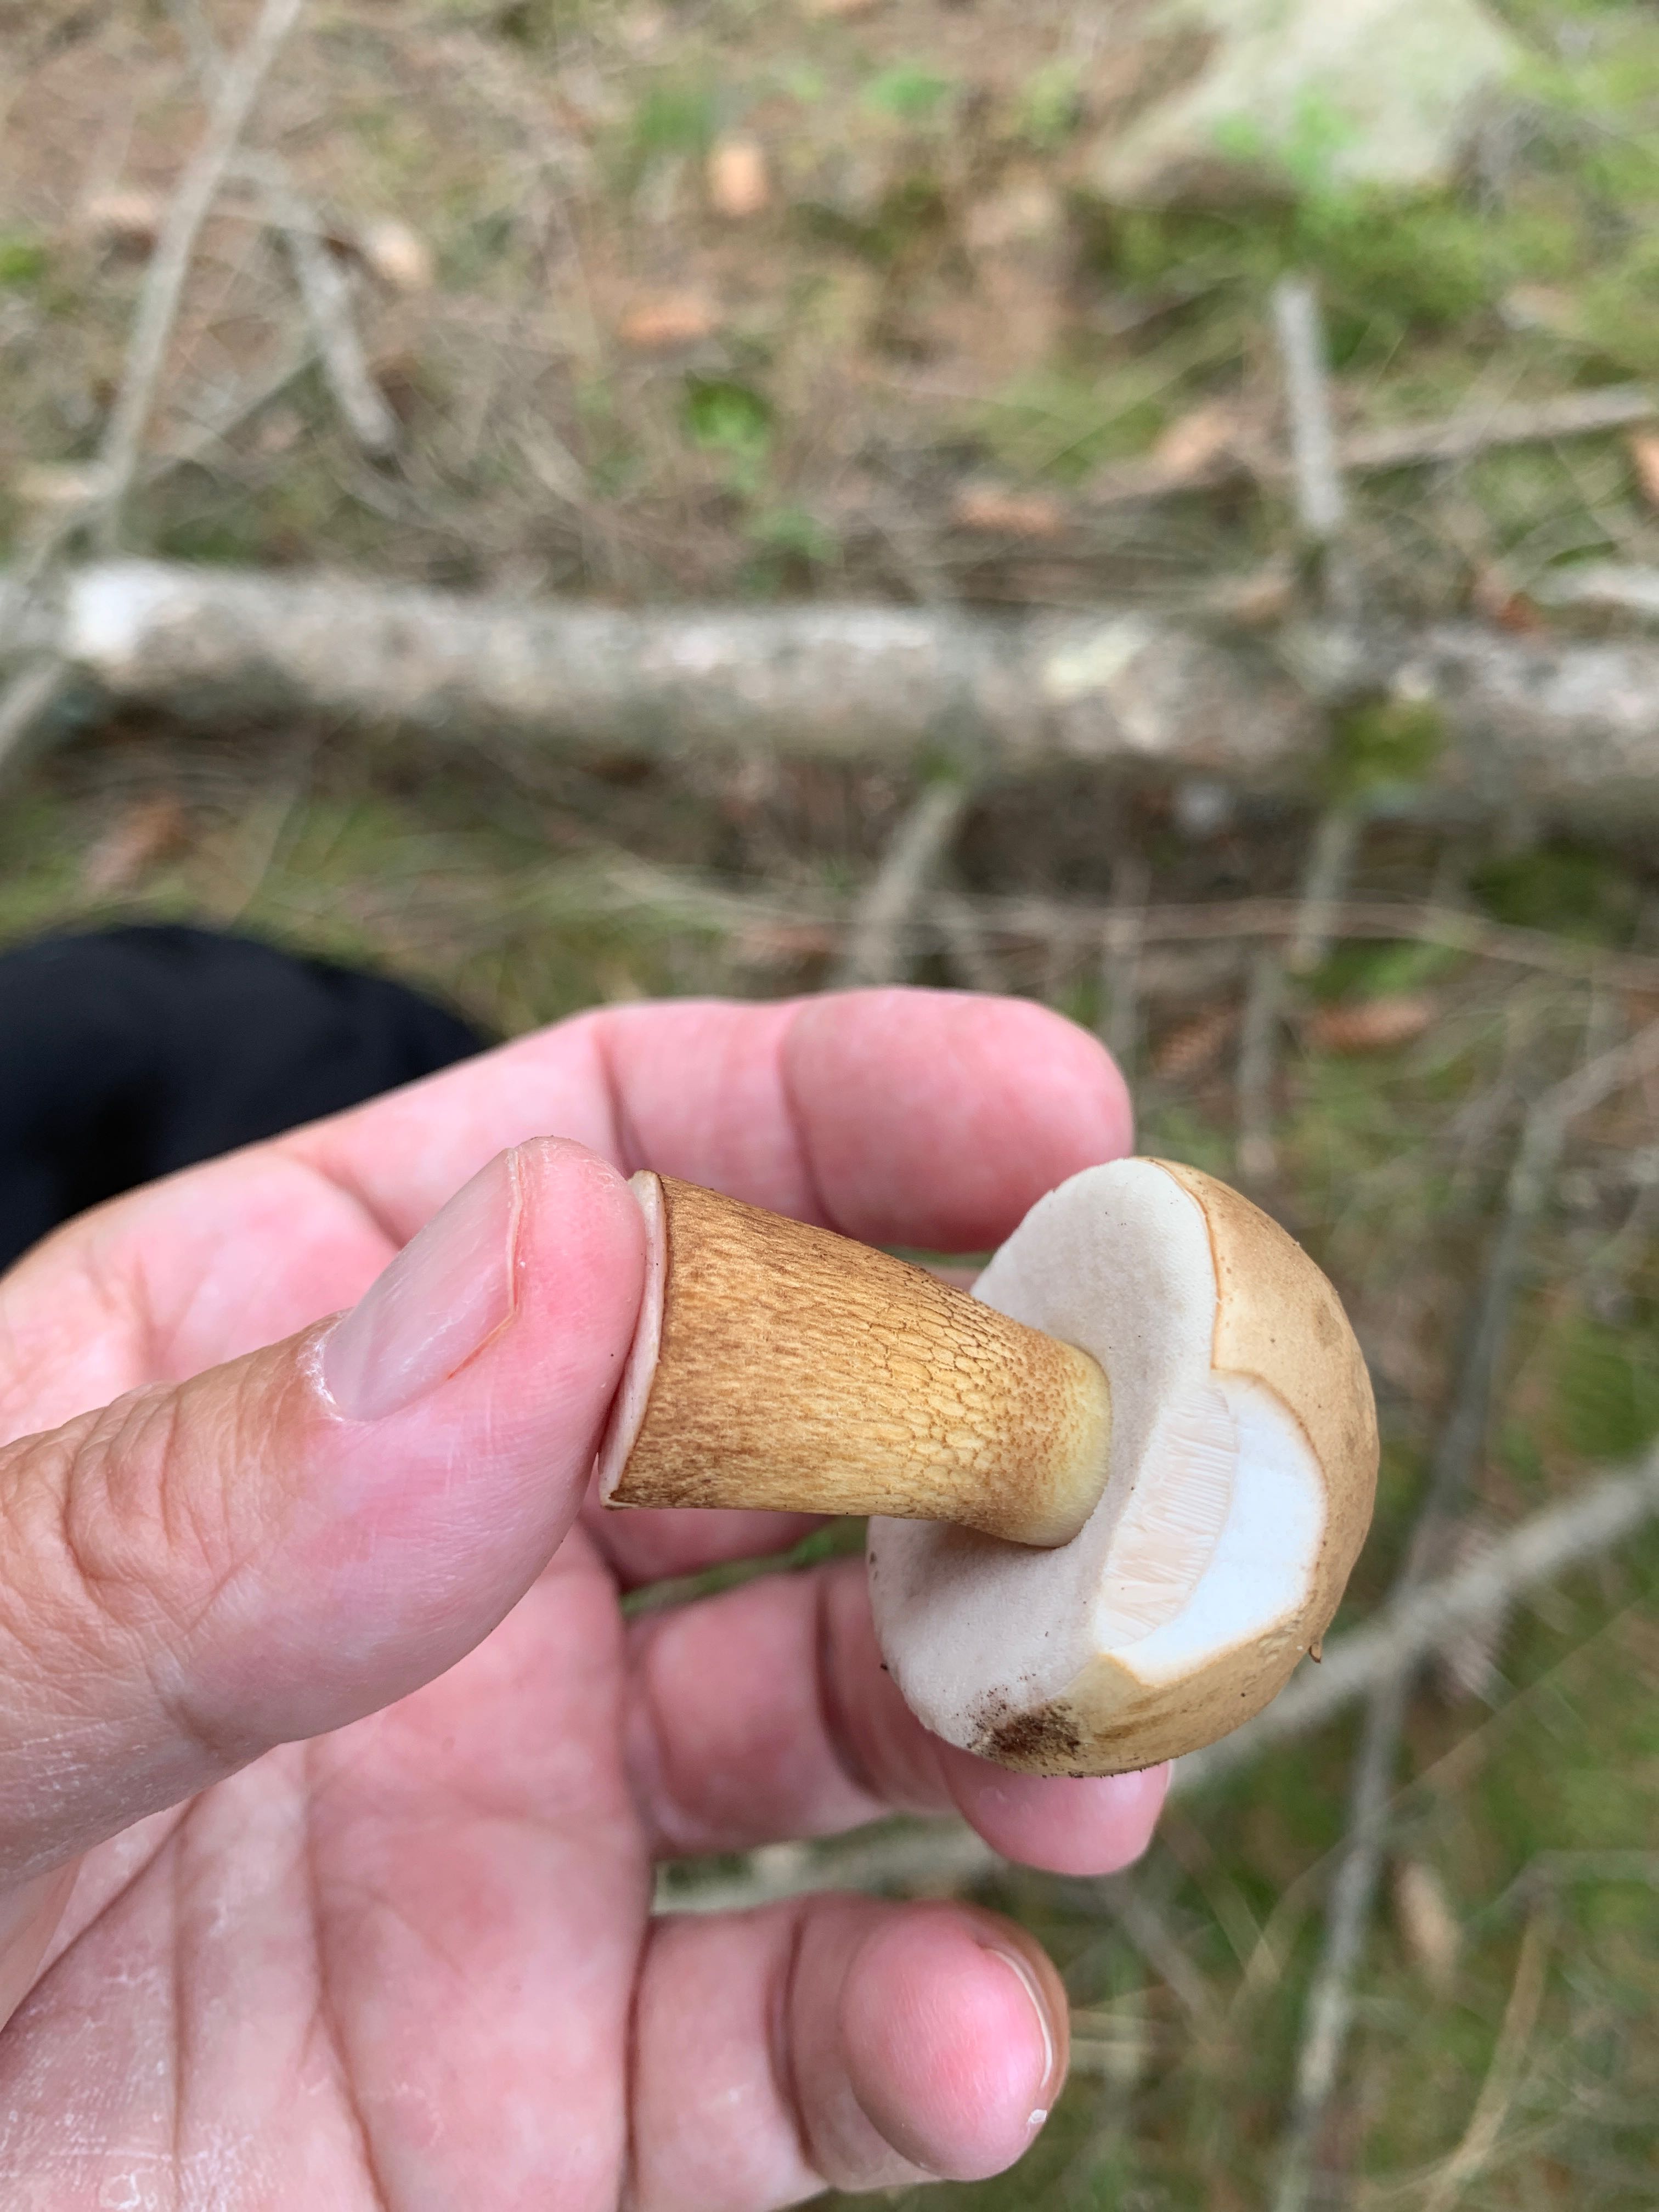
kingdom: Fungi
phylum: Basidiomycota
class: Agaricomycetes
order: Boletales
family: Boletaceae
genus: Tylopilus
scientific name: Tylopilus felleus
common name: galderørhat
